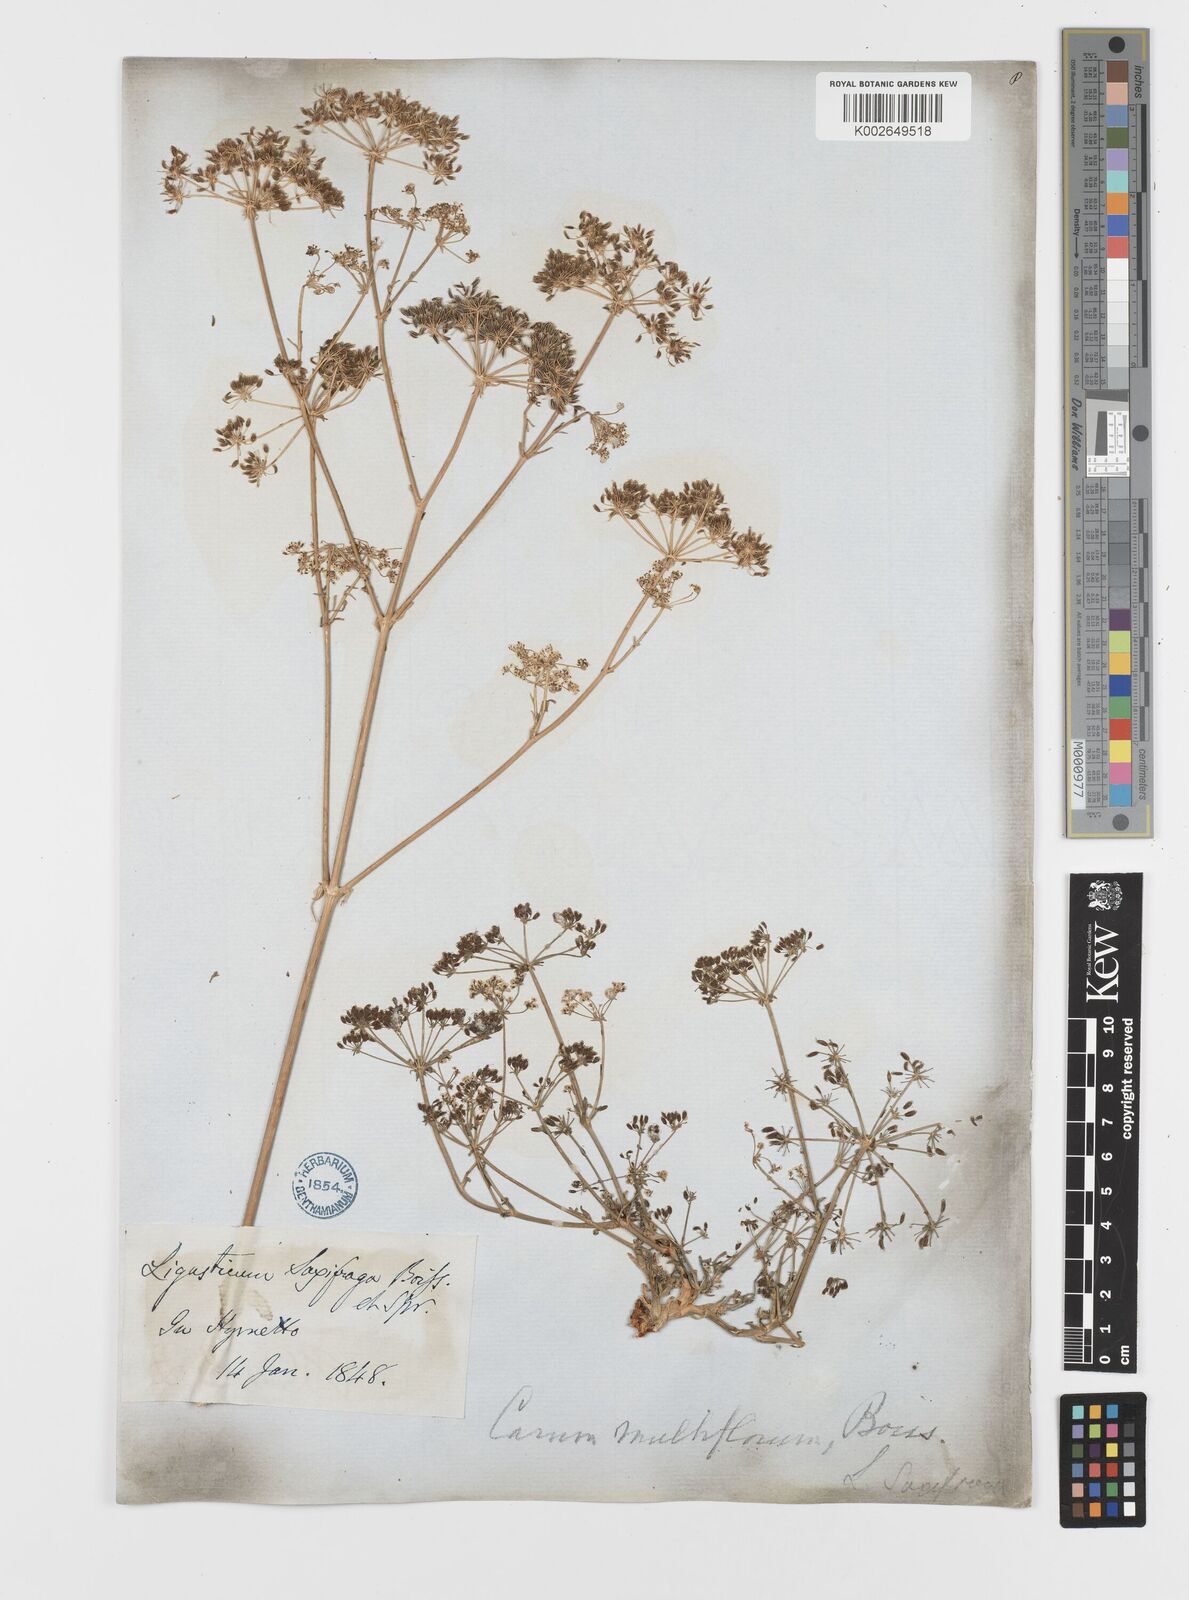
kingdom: Plantae
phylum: Tracheophyta
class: Magnoliopsida
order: Apiales
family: Apiaceae
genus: Hellenocarum
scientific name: Hellenocarum multiflorum
